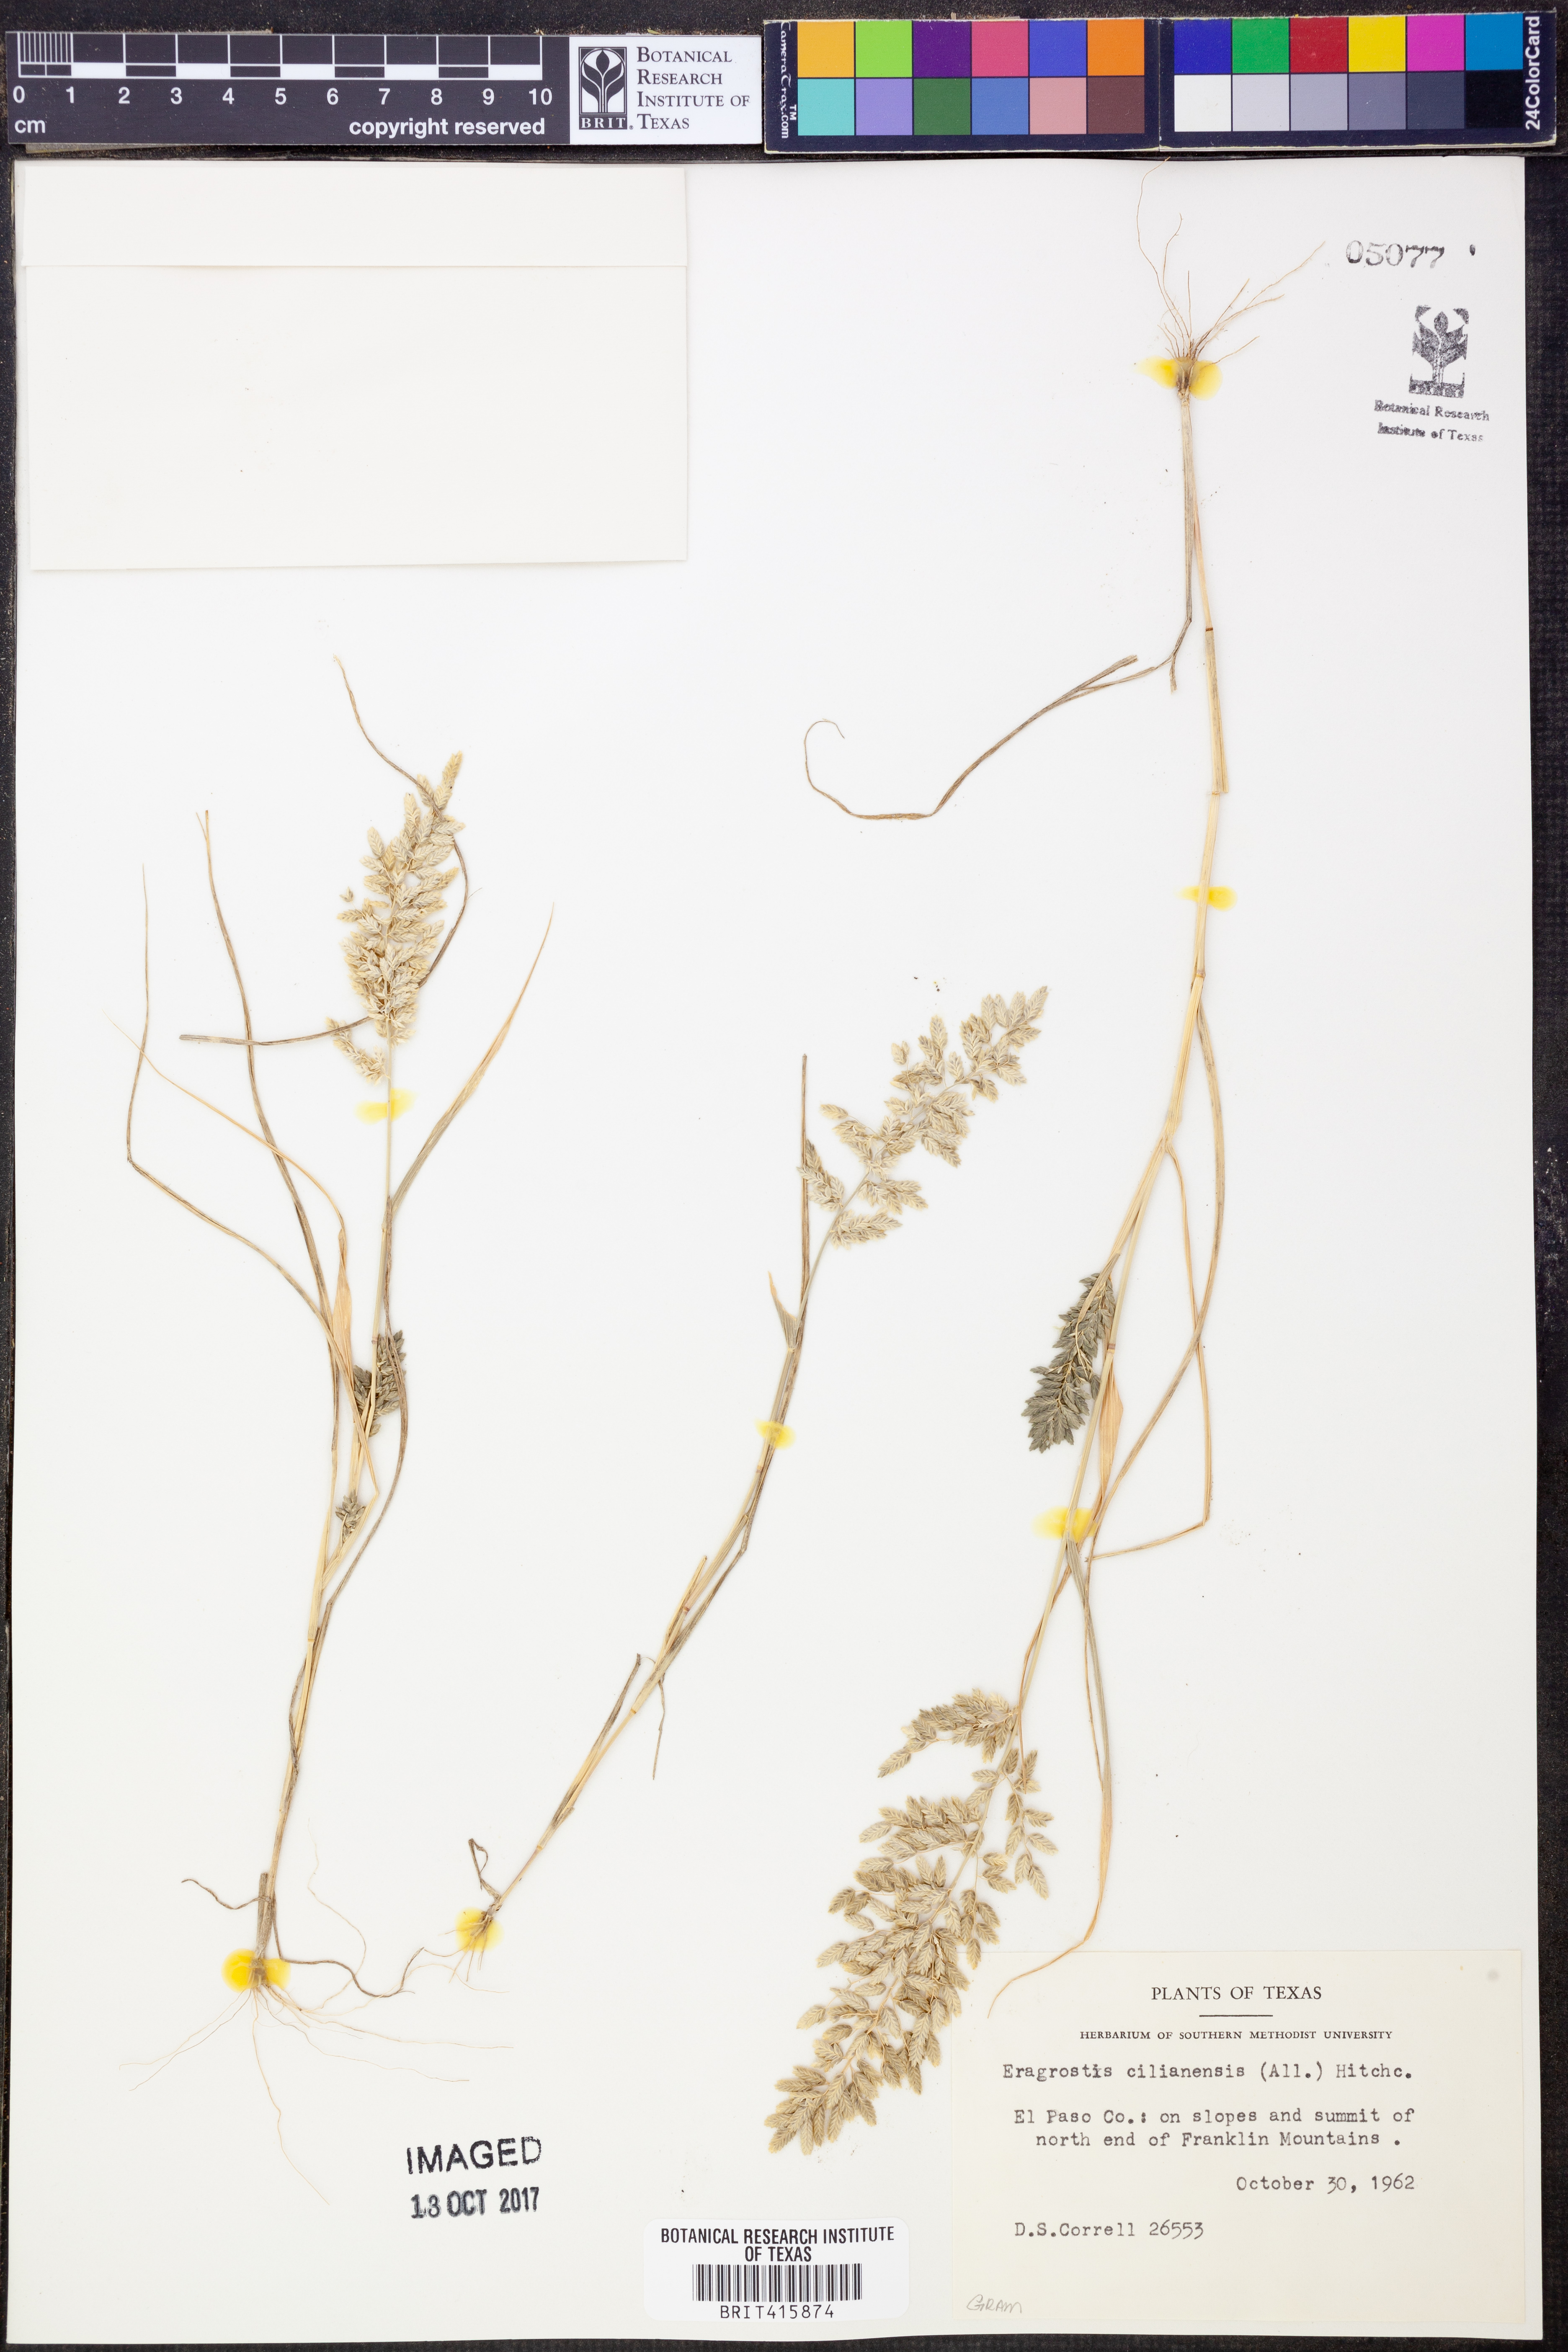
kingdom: Plantae
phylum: Tracheophyta
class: Liliopsida
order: Poales
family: Poaceae
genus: Eragrostis
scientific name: Eragrostis cilianensis
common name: Stinkgrass
